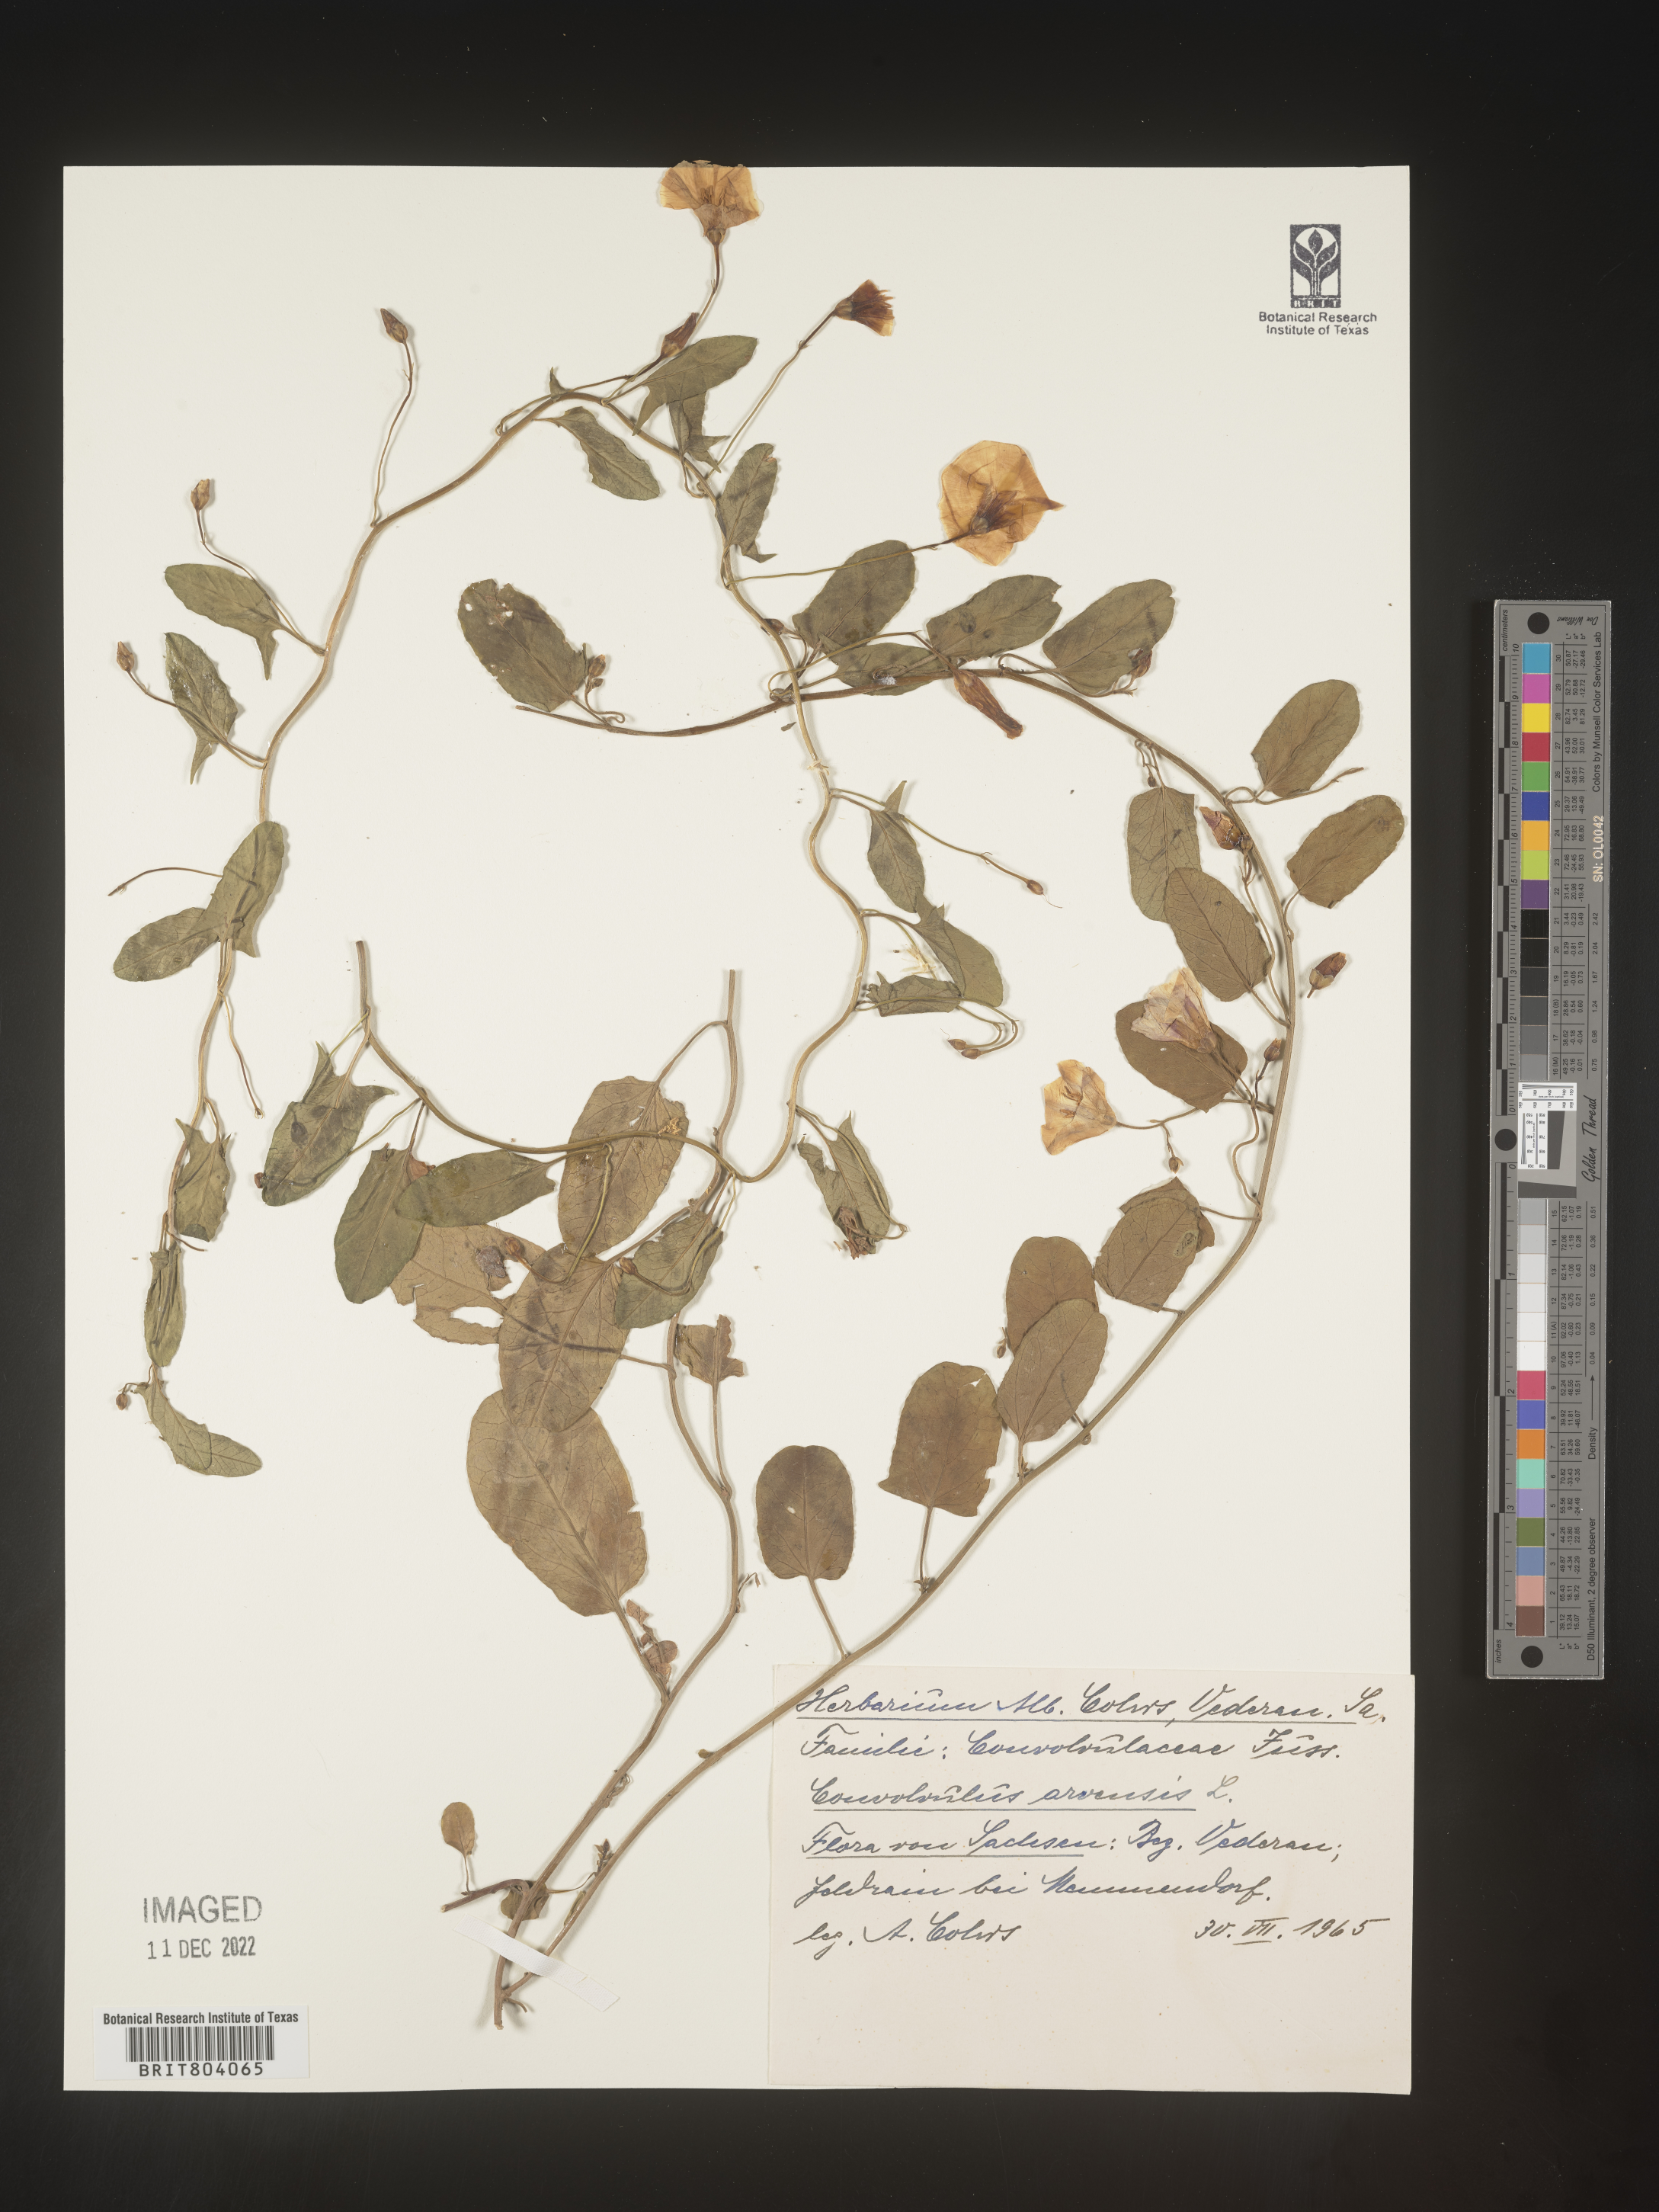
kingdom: Plantae
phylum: Tracheophyta
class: Magnoliopsida
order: Solanales
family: Convolvulaceae
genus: Convolvulus
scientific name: Convolvulus
